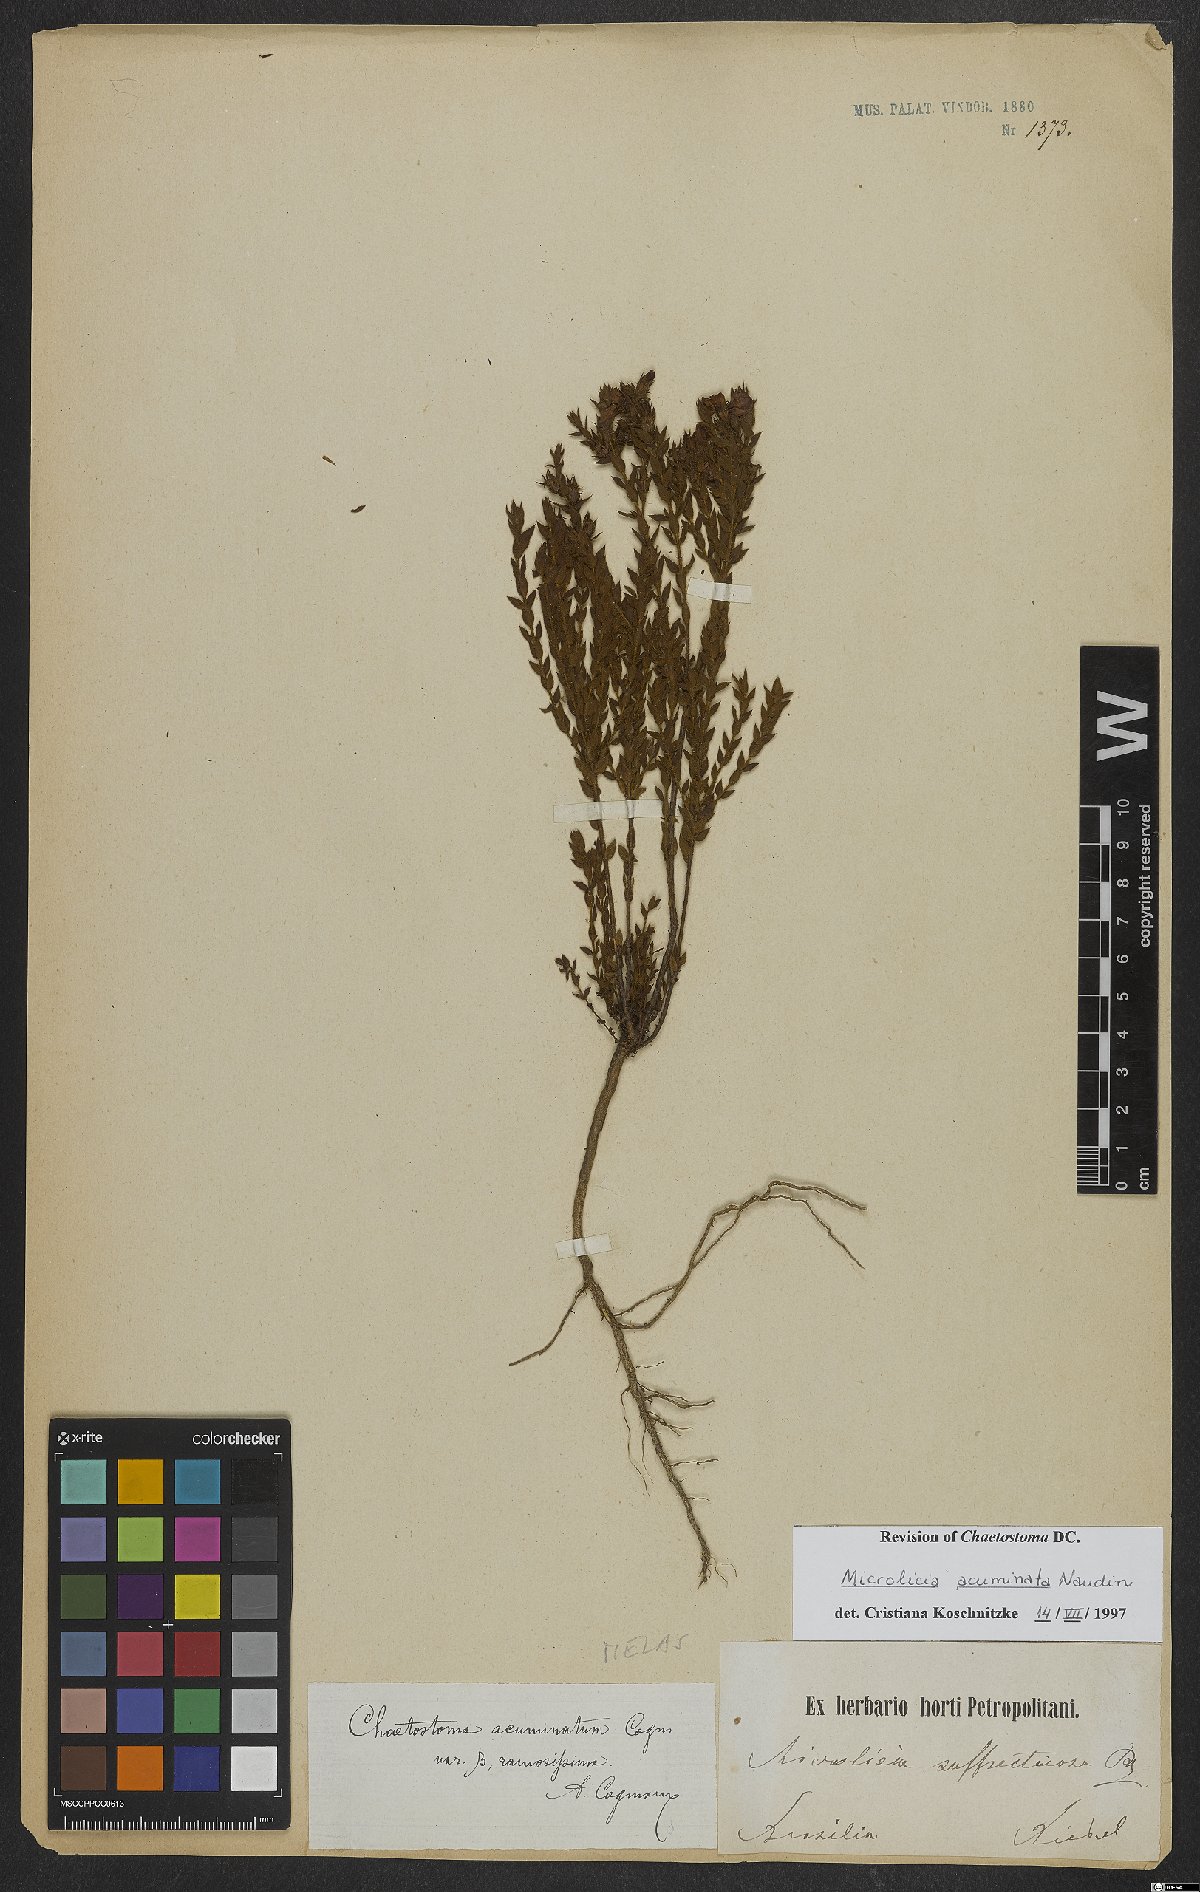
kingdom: Plantae
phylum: Tracheophyta
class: Magnoliopsida
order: Myrtales
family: Melastomataceae
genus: Microlicia
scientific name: Microlicia hirticalyx
